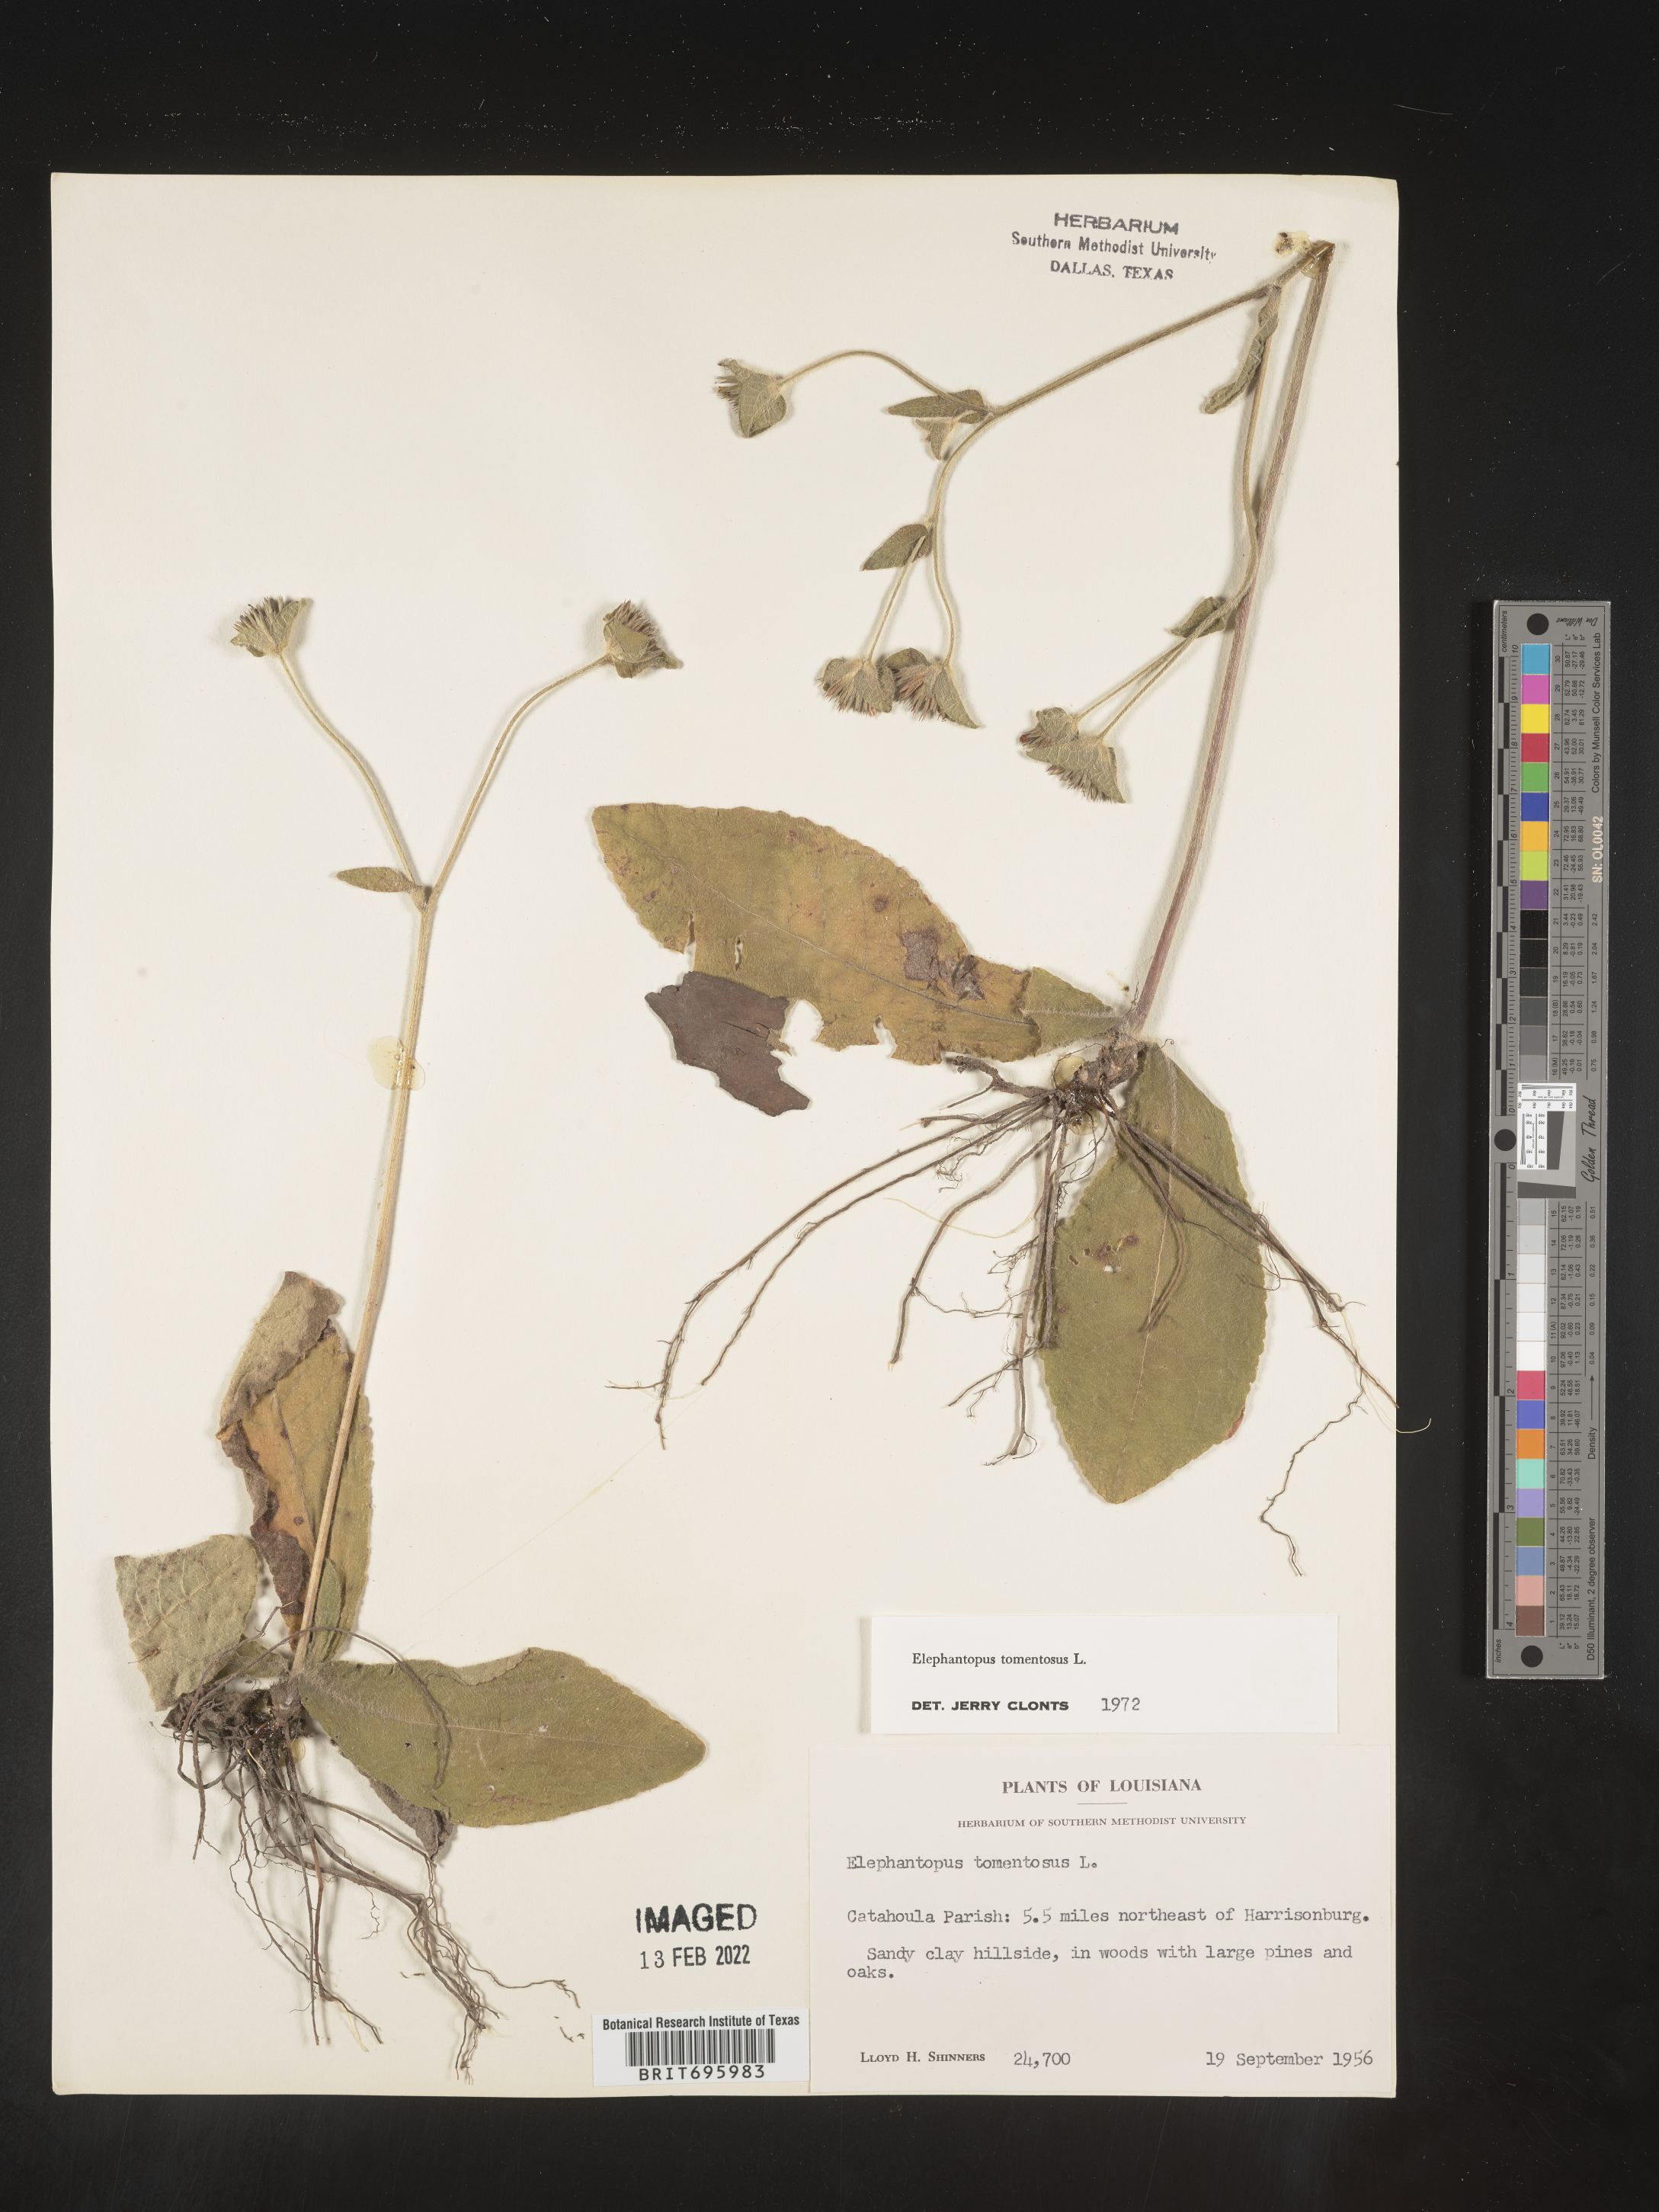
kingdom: Plantae
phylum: Tracheophyta
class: Magnoliopsida
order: Asterales
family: Asteraceae
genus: Elephantopus
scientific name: Elephantopus tomentosus
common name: Tobacco-weed
